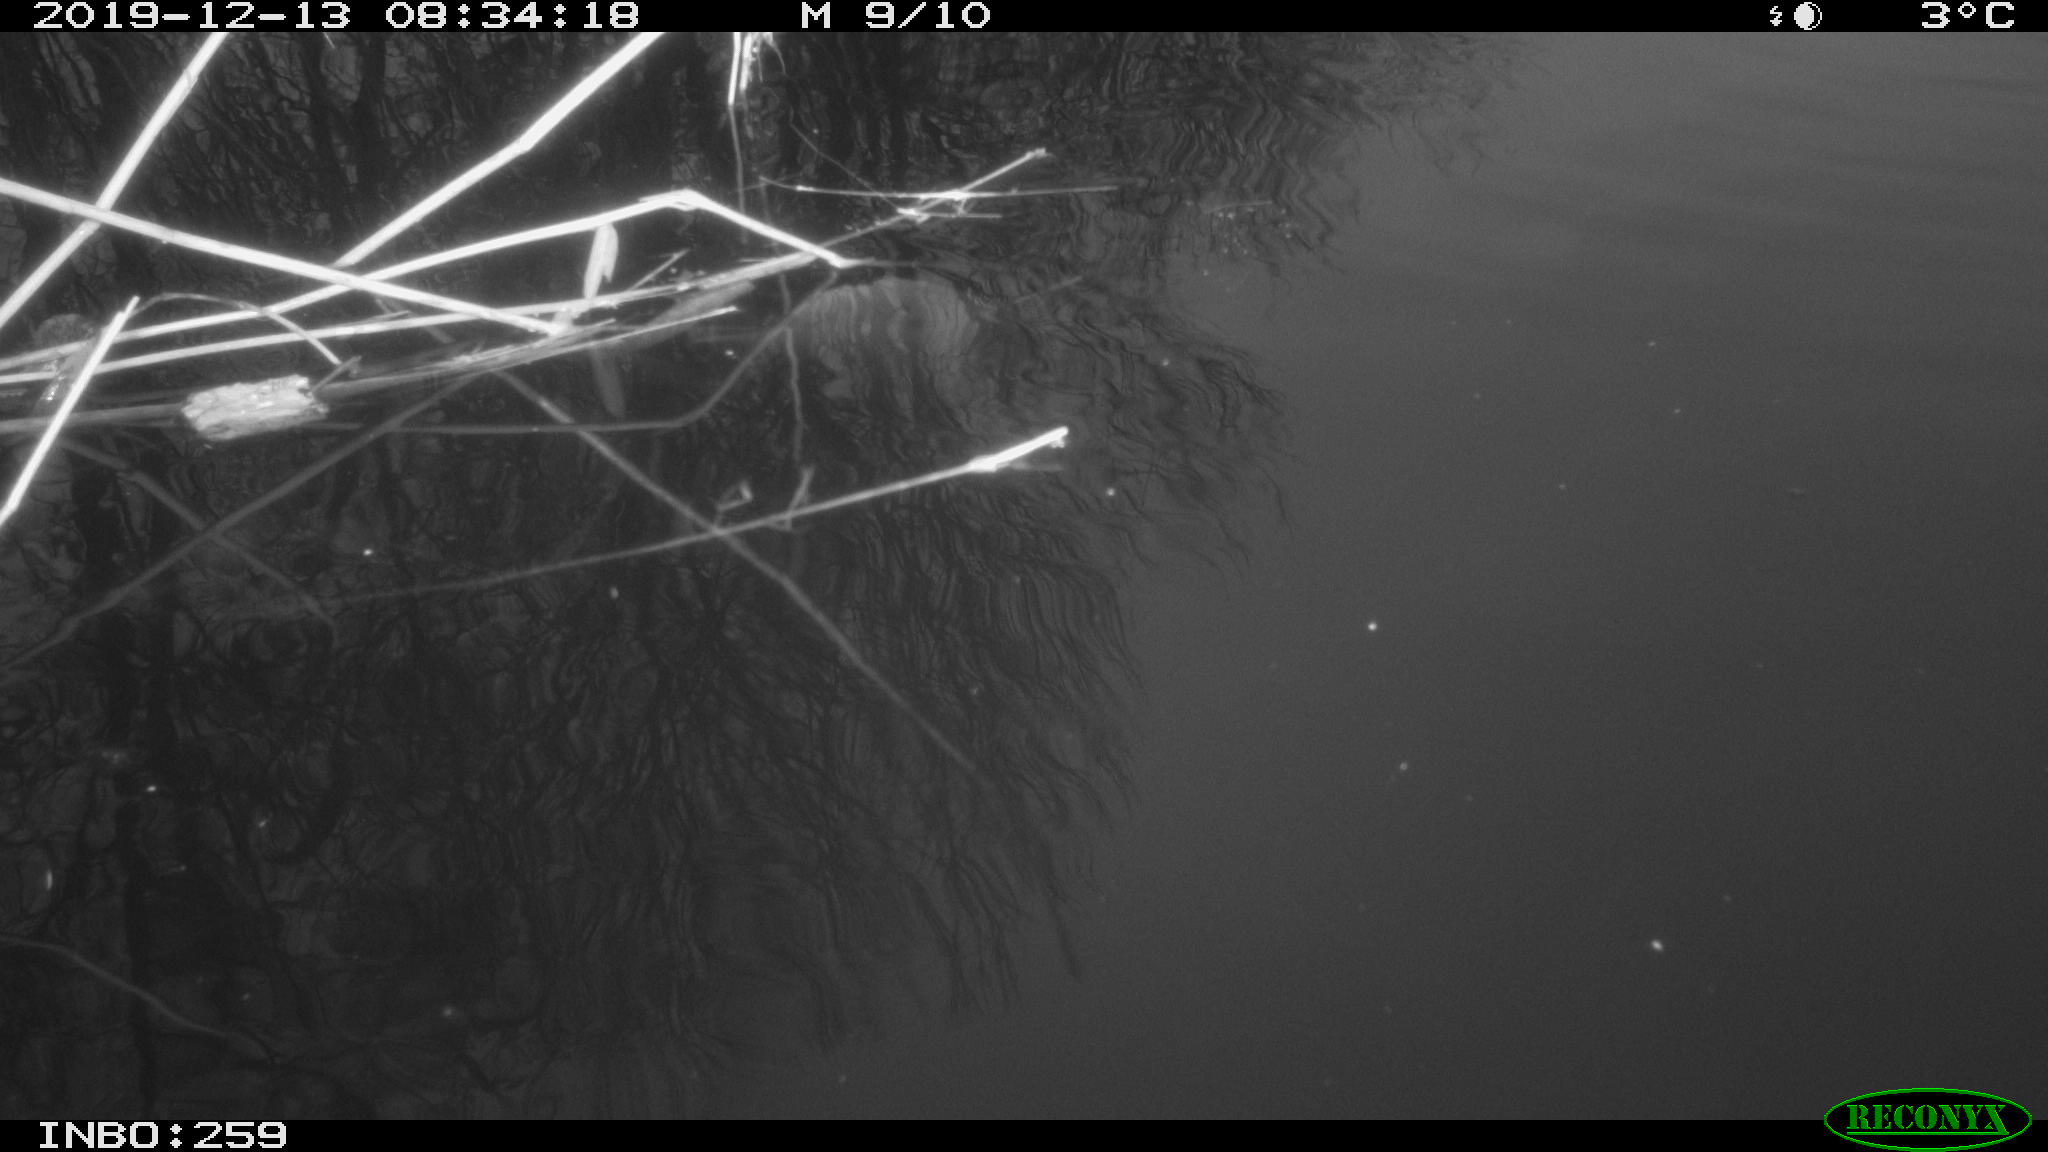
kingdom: Animalia
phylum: Chordata
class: Aves
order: Gruiformes
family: Rallidae
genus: Gallinula
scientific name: Gallinula chloropus
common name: Common moorhen
